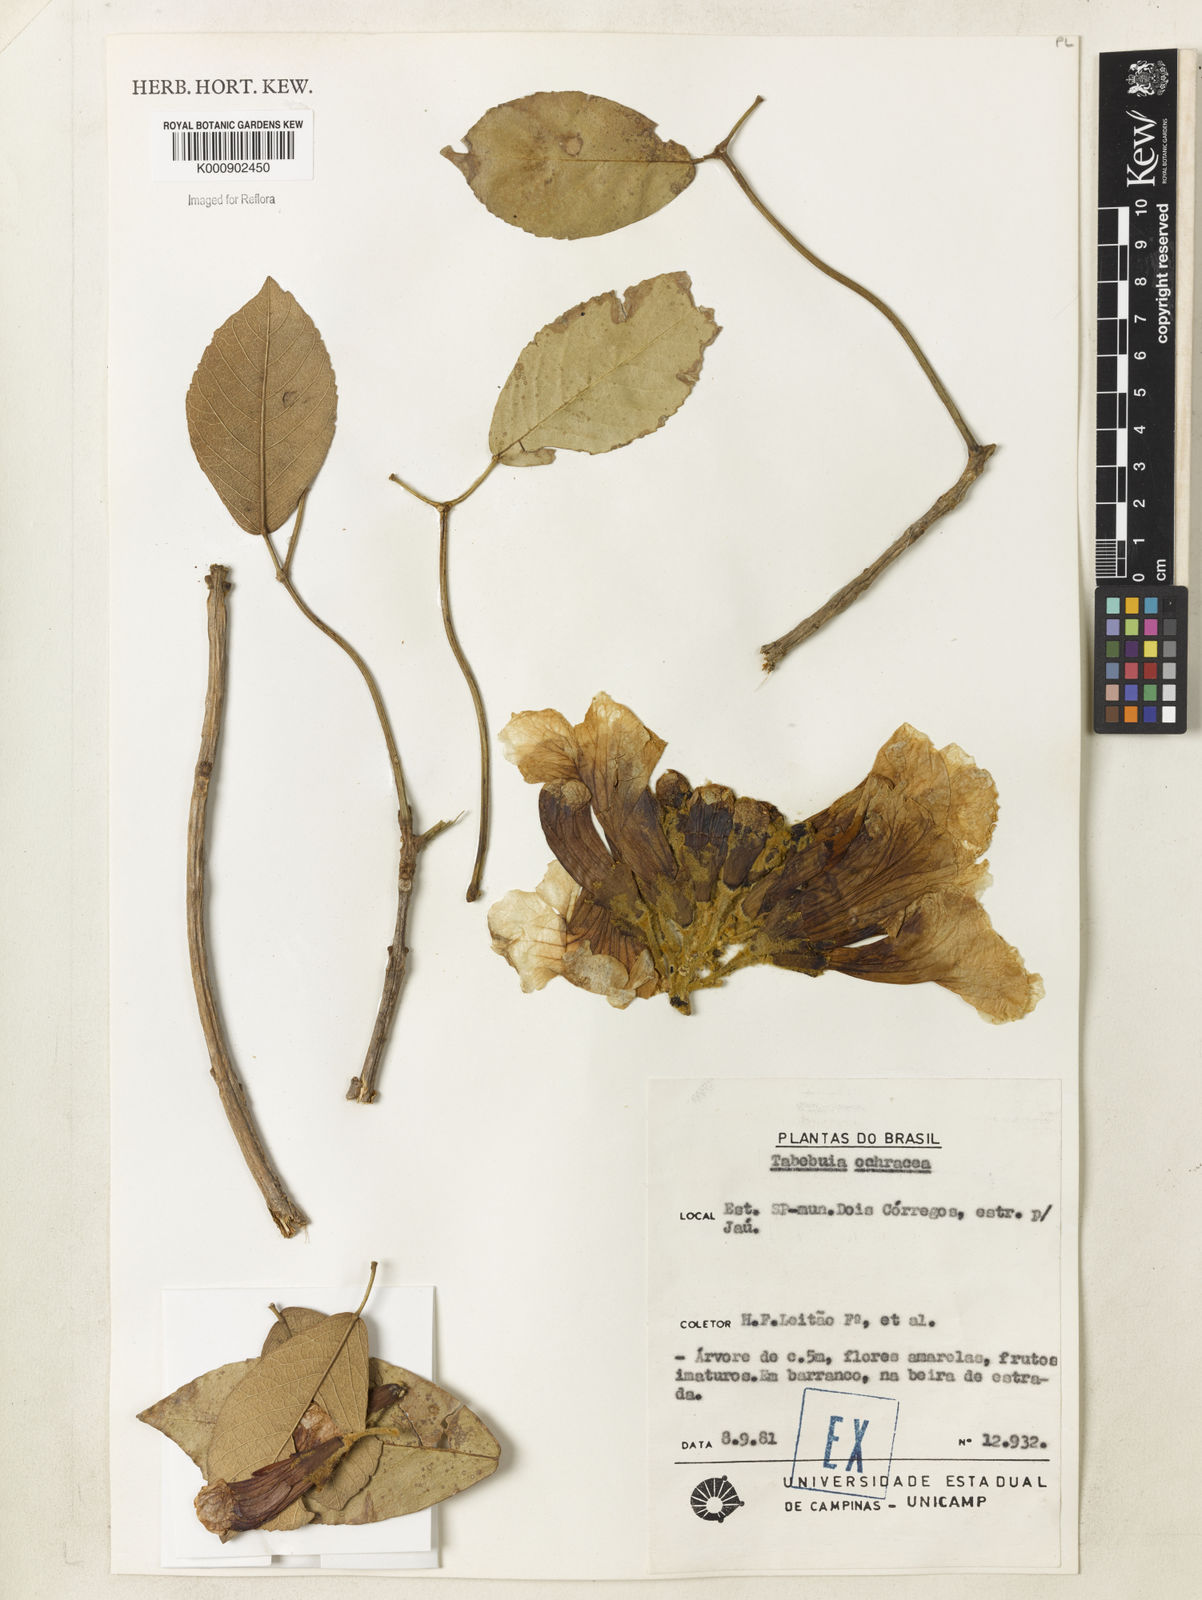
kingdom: Plantae
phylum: Tracheophyta
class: Magnoliopsida
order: Lamiales
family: Bignoniaceae
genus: Handroanthus
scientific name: Handroanthus ochraceus
